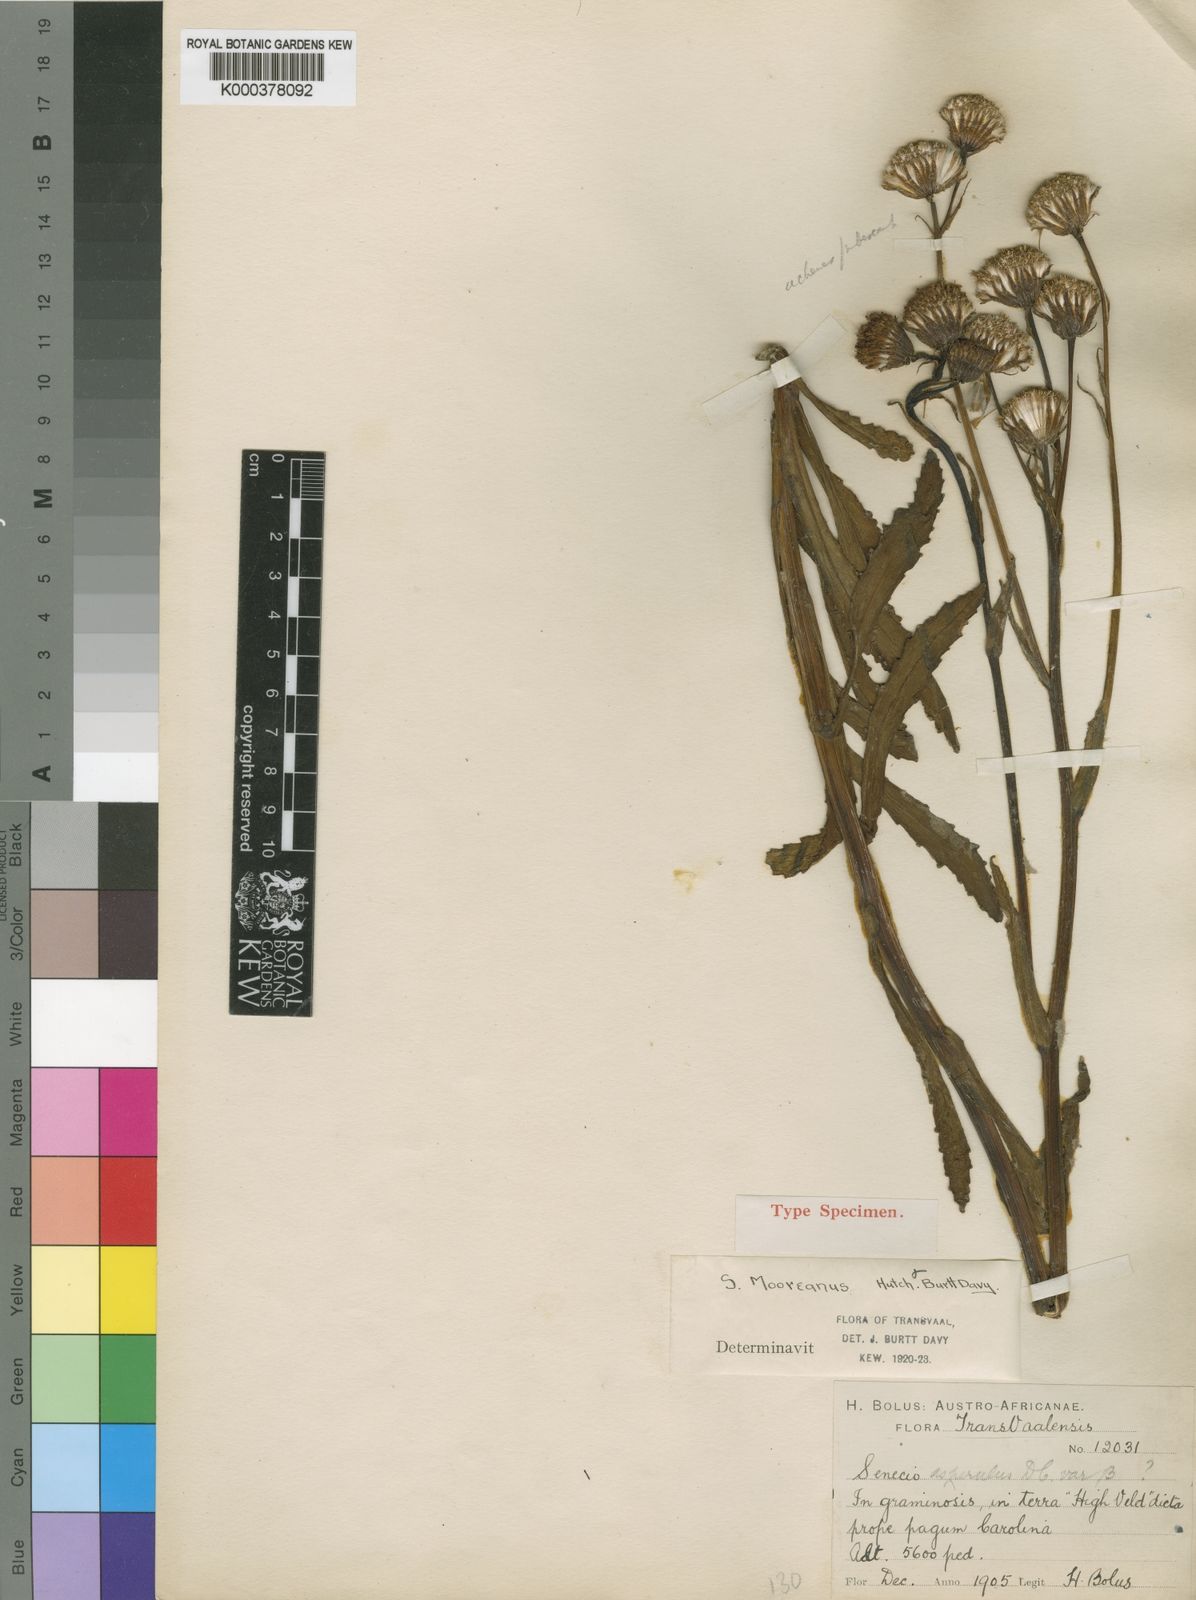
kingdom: Plantae
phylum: Tracheophyta
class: Magnoliopsida
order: Asterales
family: Asteraceae
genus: Senecio
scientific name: Senecio mooreanus
